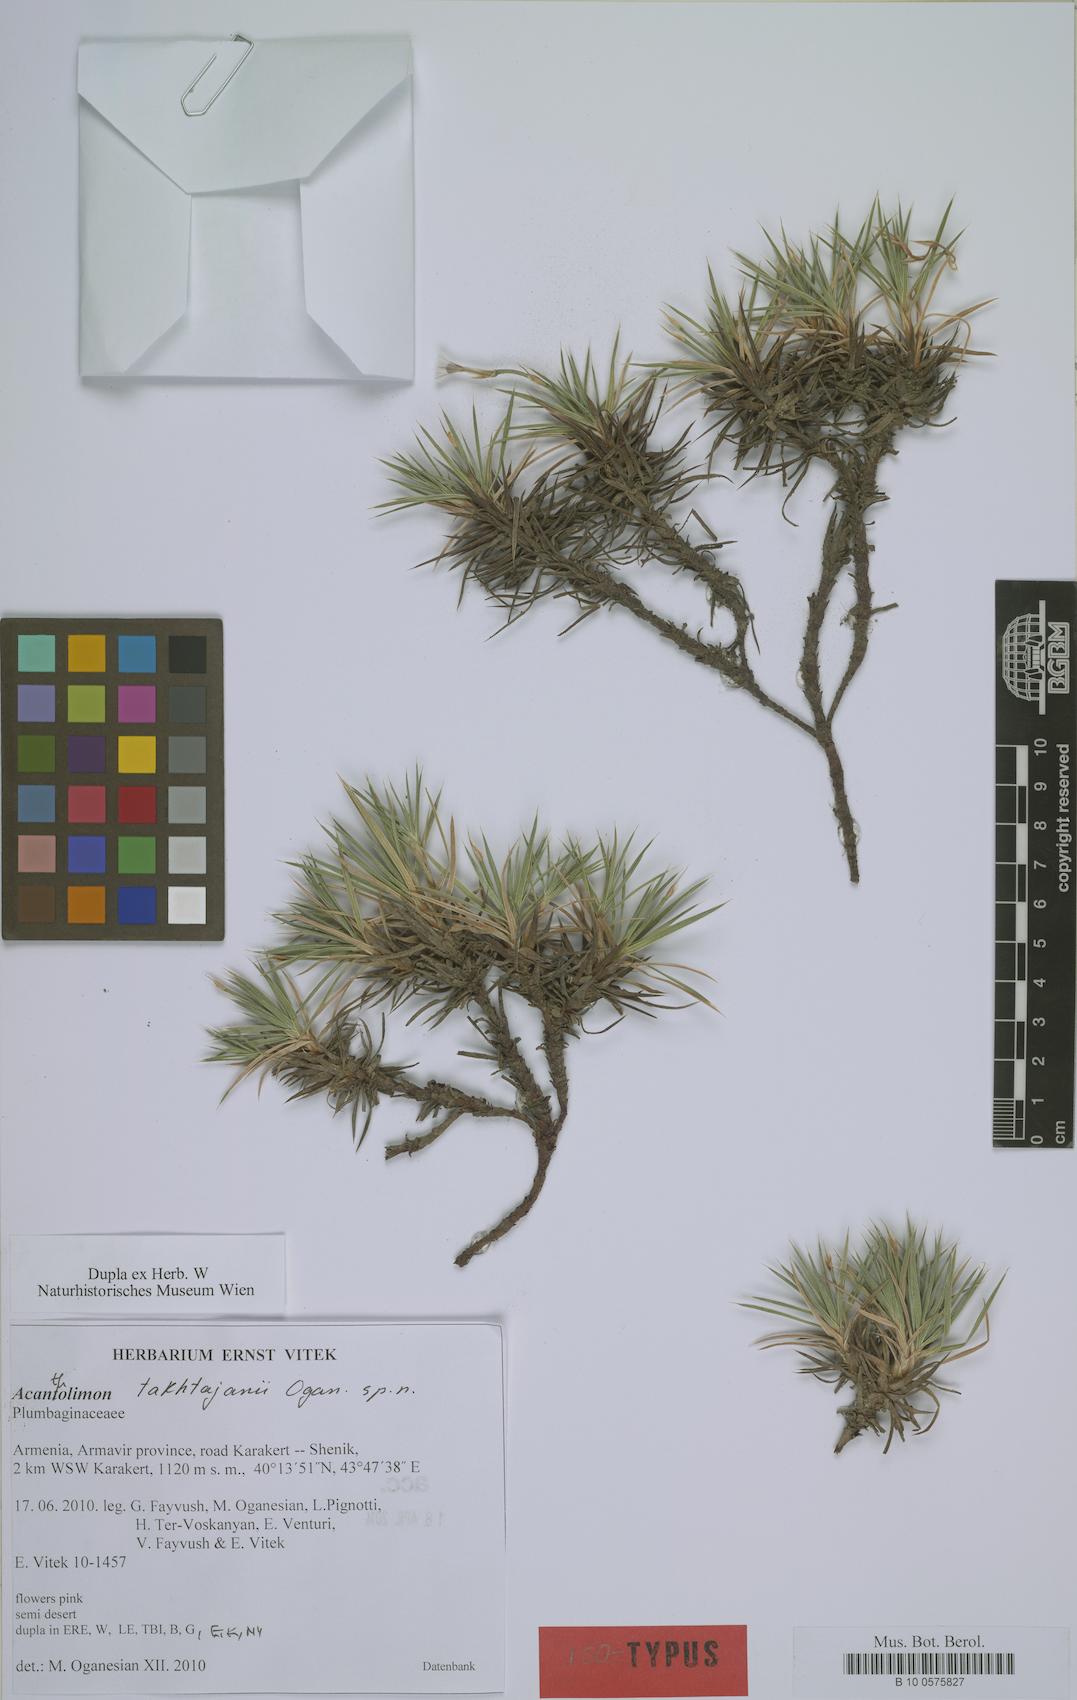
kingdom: Plantae
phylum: Tracheophyta
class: Magnoliopsida
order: Caryophyllales
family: Plumbaginaceae
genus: Acantholimon
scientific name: Acantholimon takhtajanii
